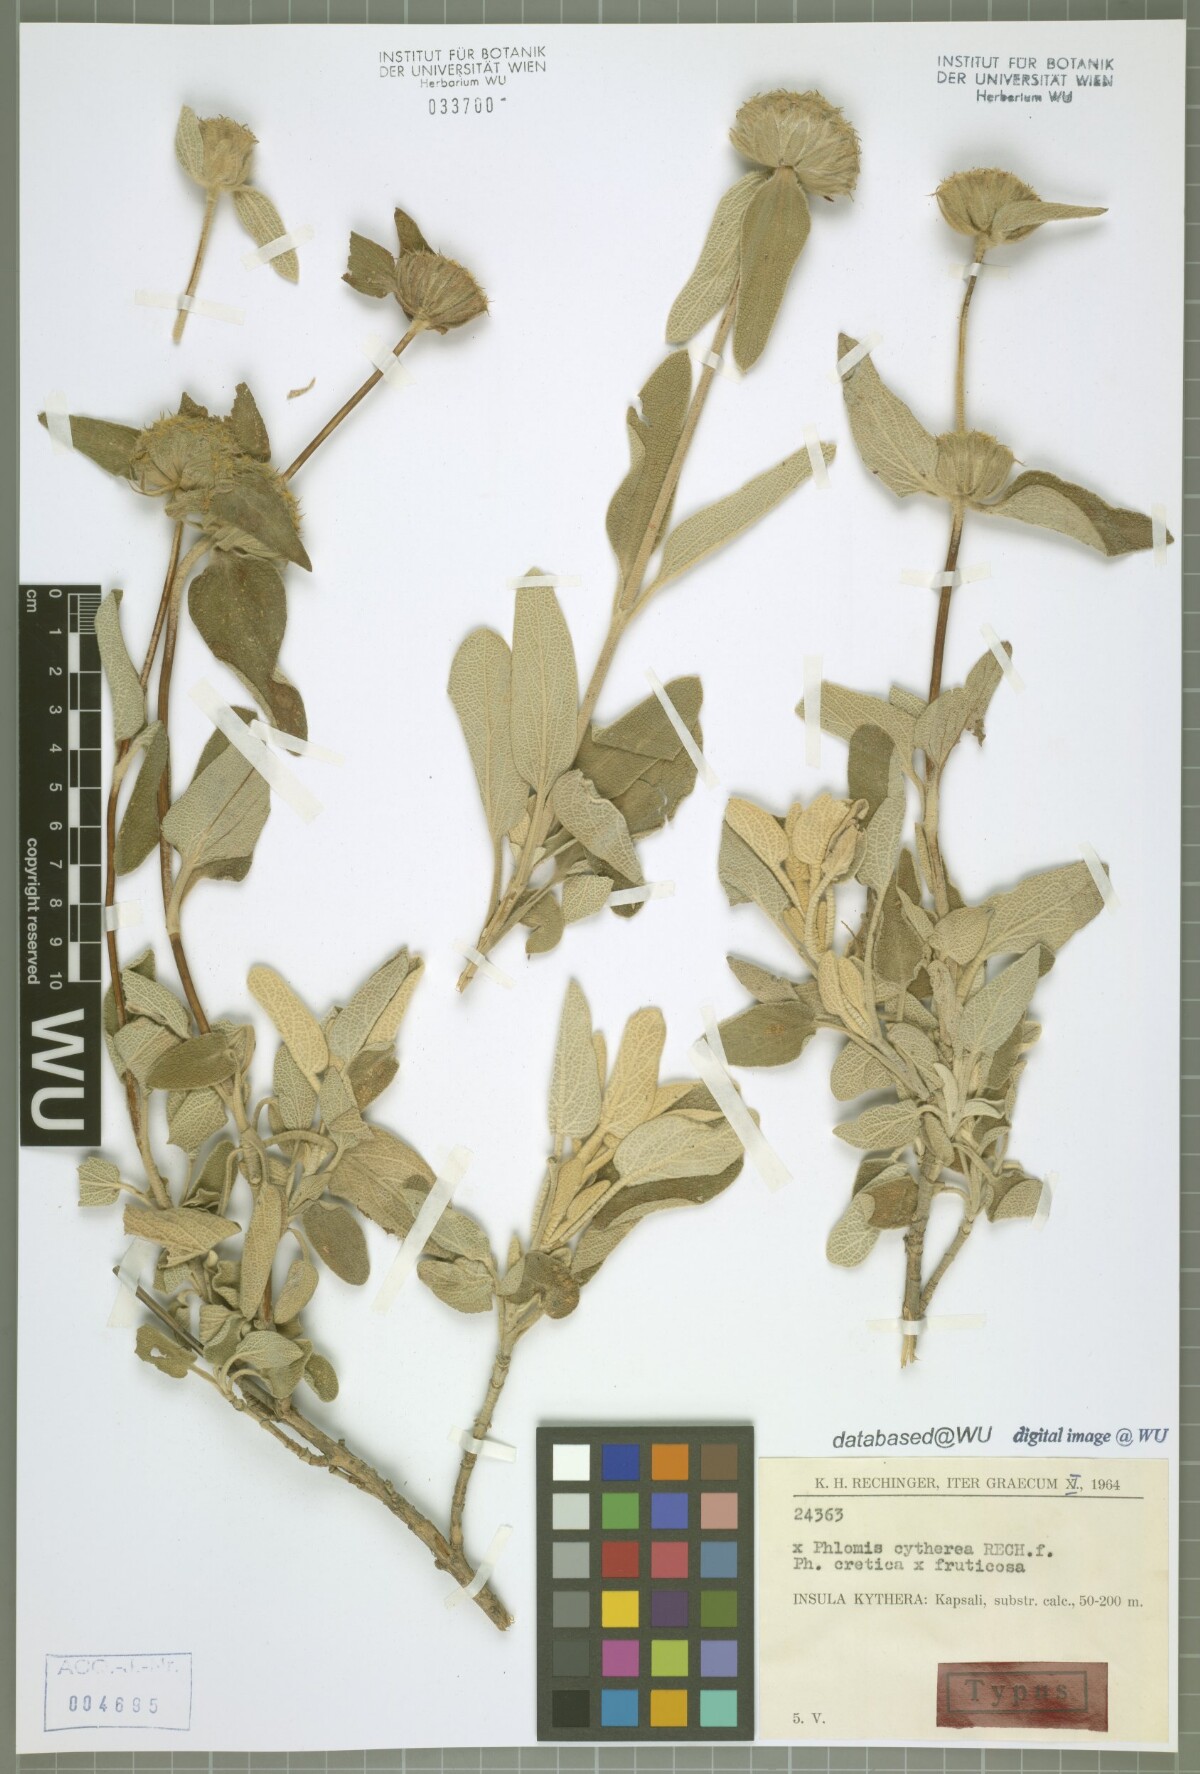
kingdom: Plantae
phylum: Tracheophyta
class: Magnoliopsida
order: Lamiales
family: Lamiaceae
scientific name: Lamiaceae
